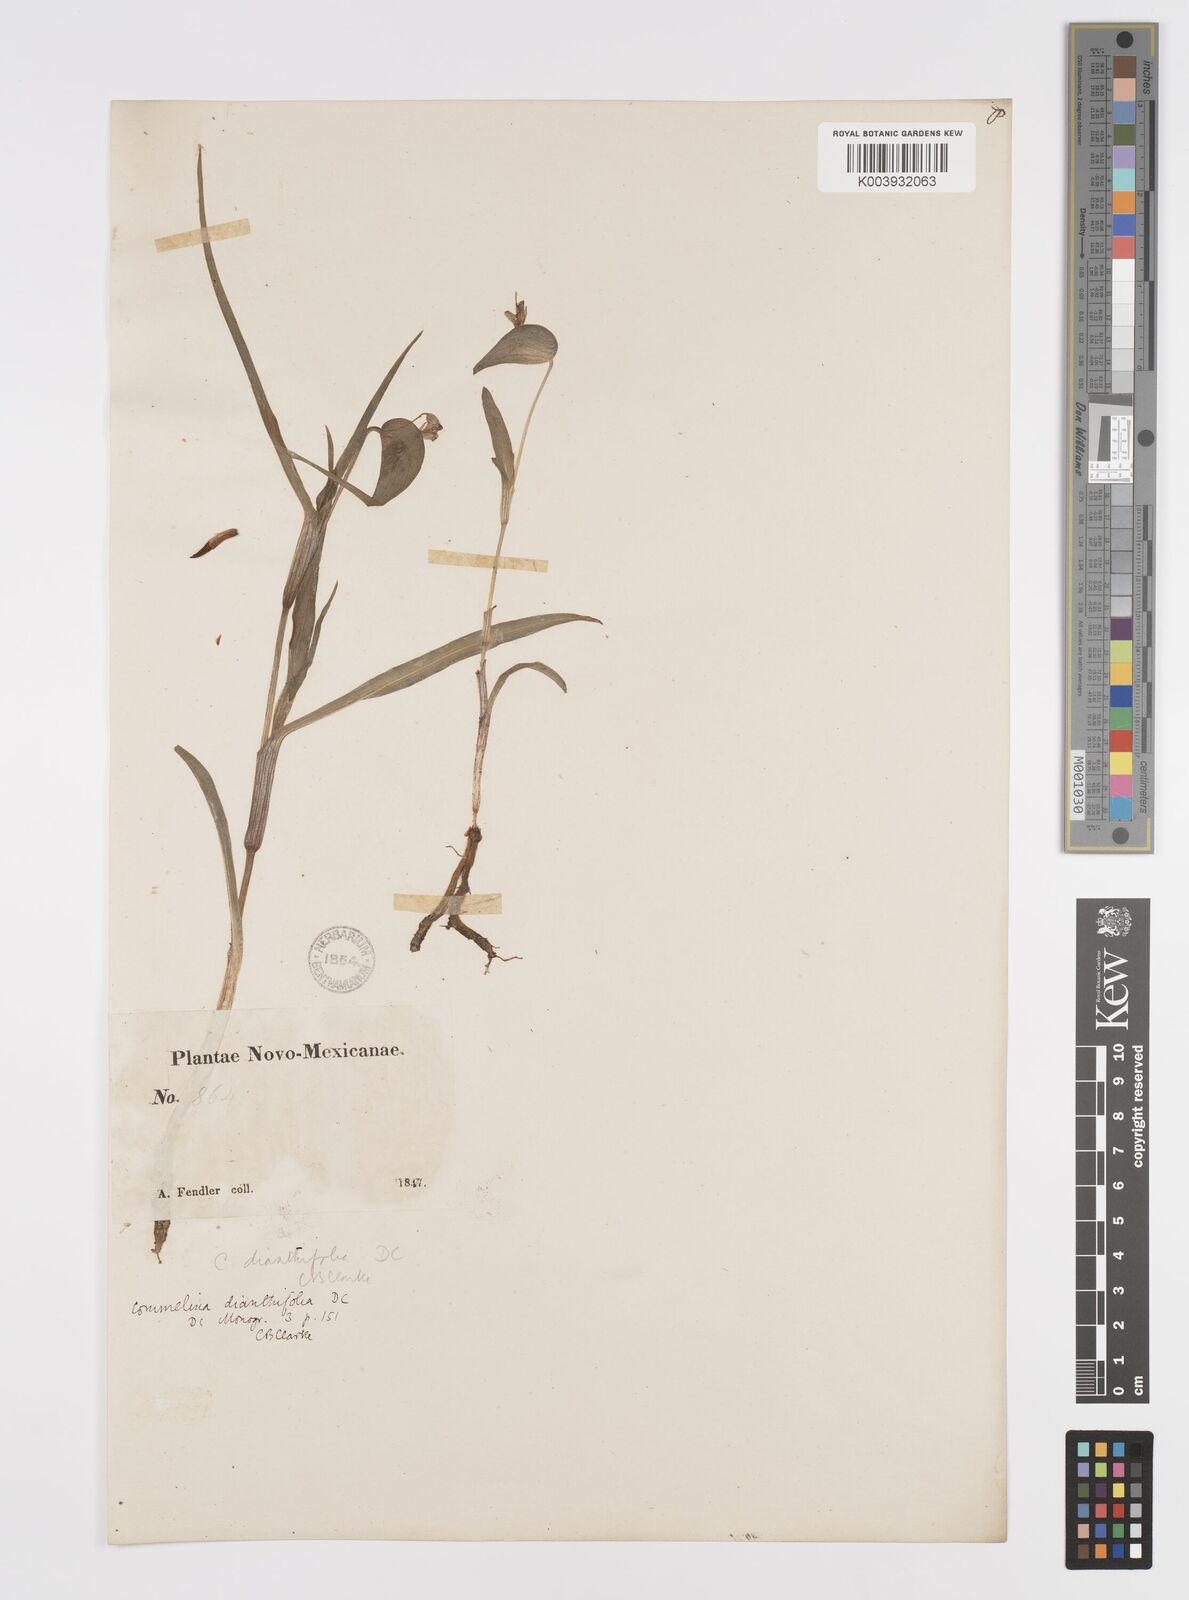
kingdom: Plantae
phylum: Tracheophyta
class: Liliopsida
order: Commelinales
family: Commelinaceae
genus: Commelina
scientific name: Commelina dianthifolia
